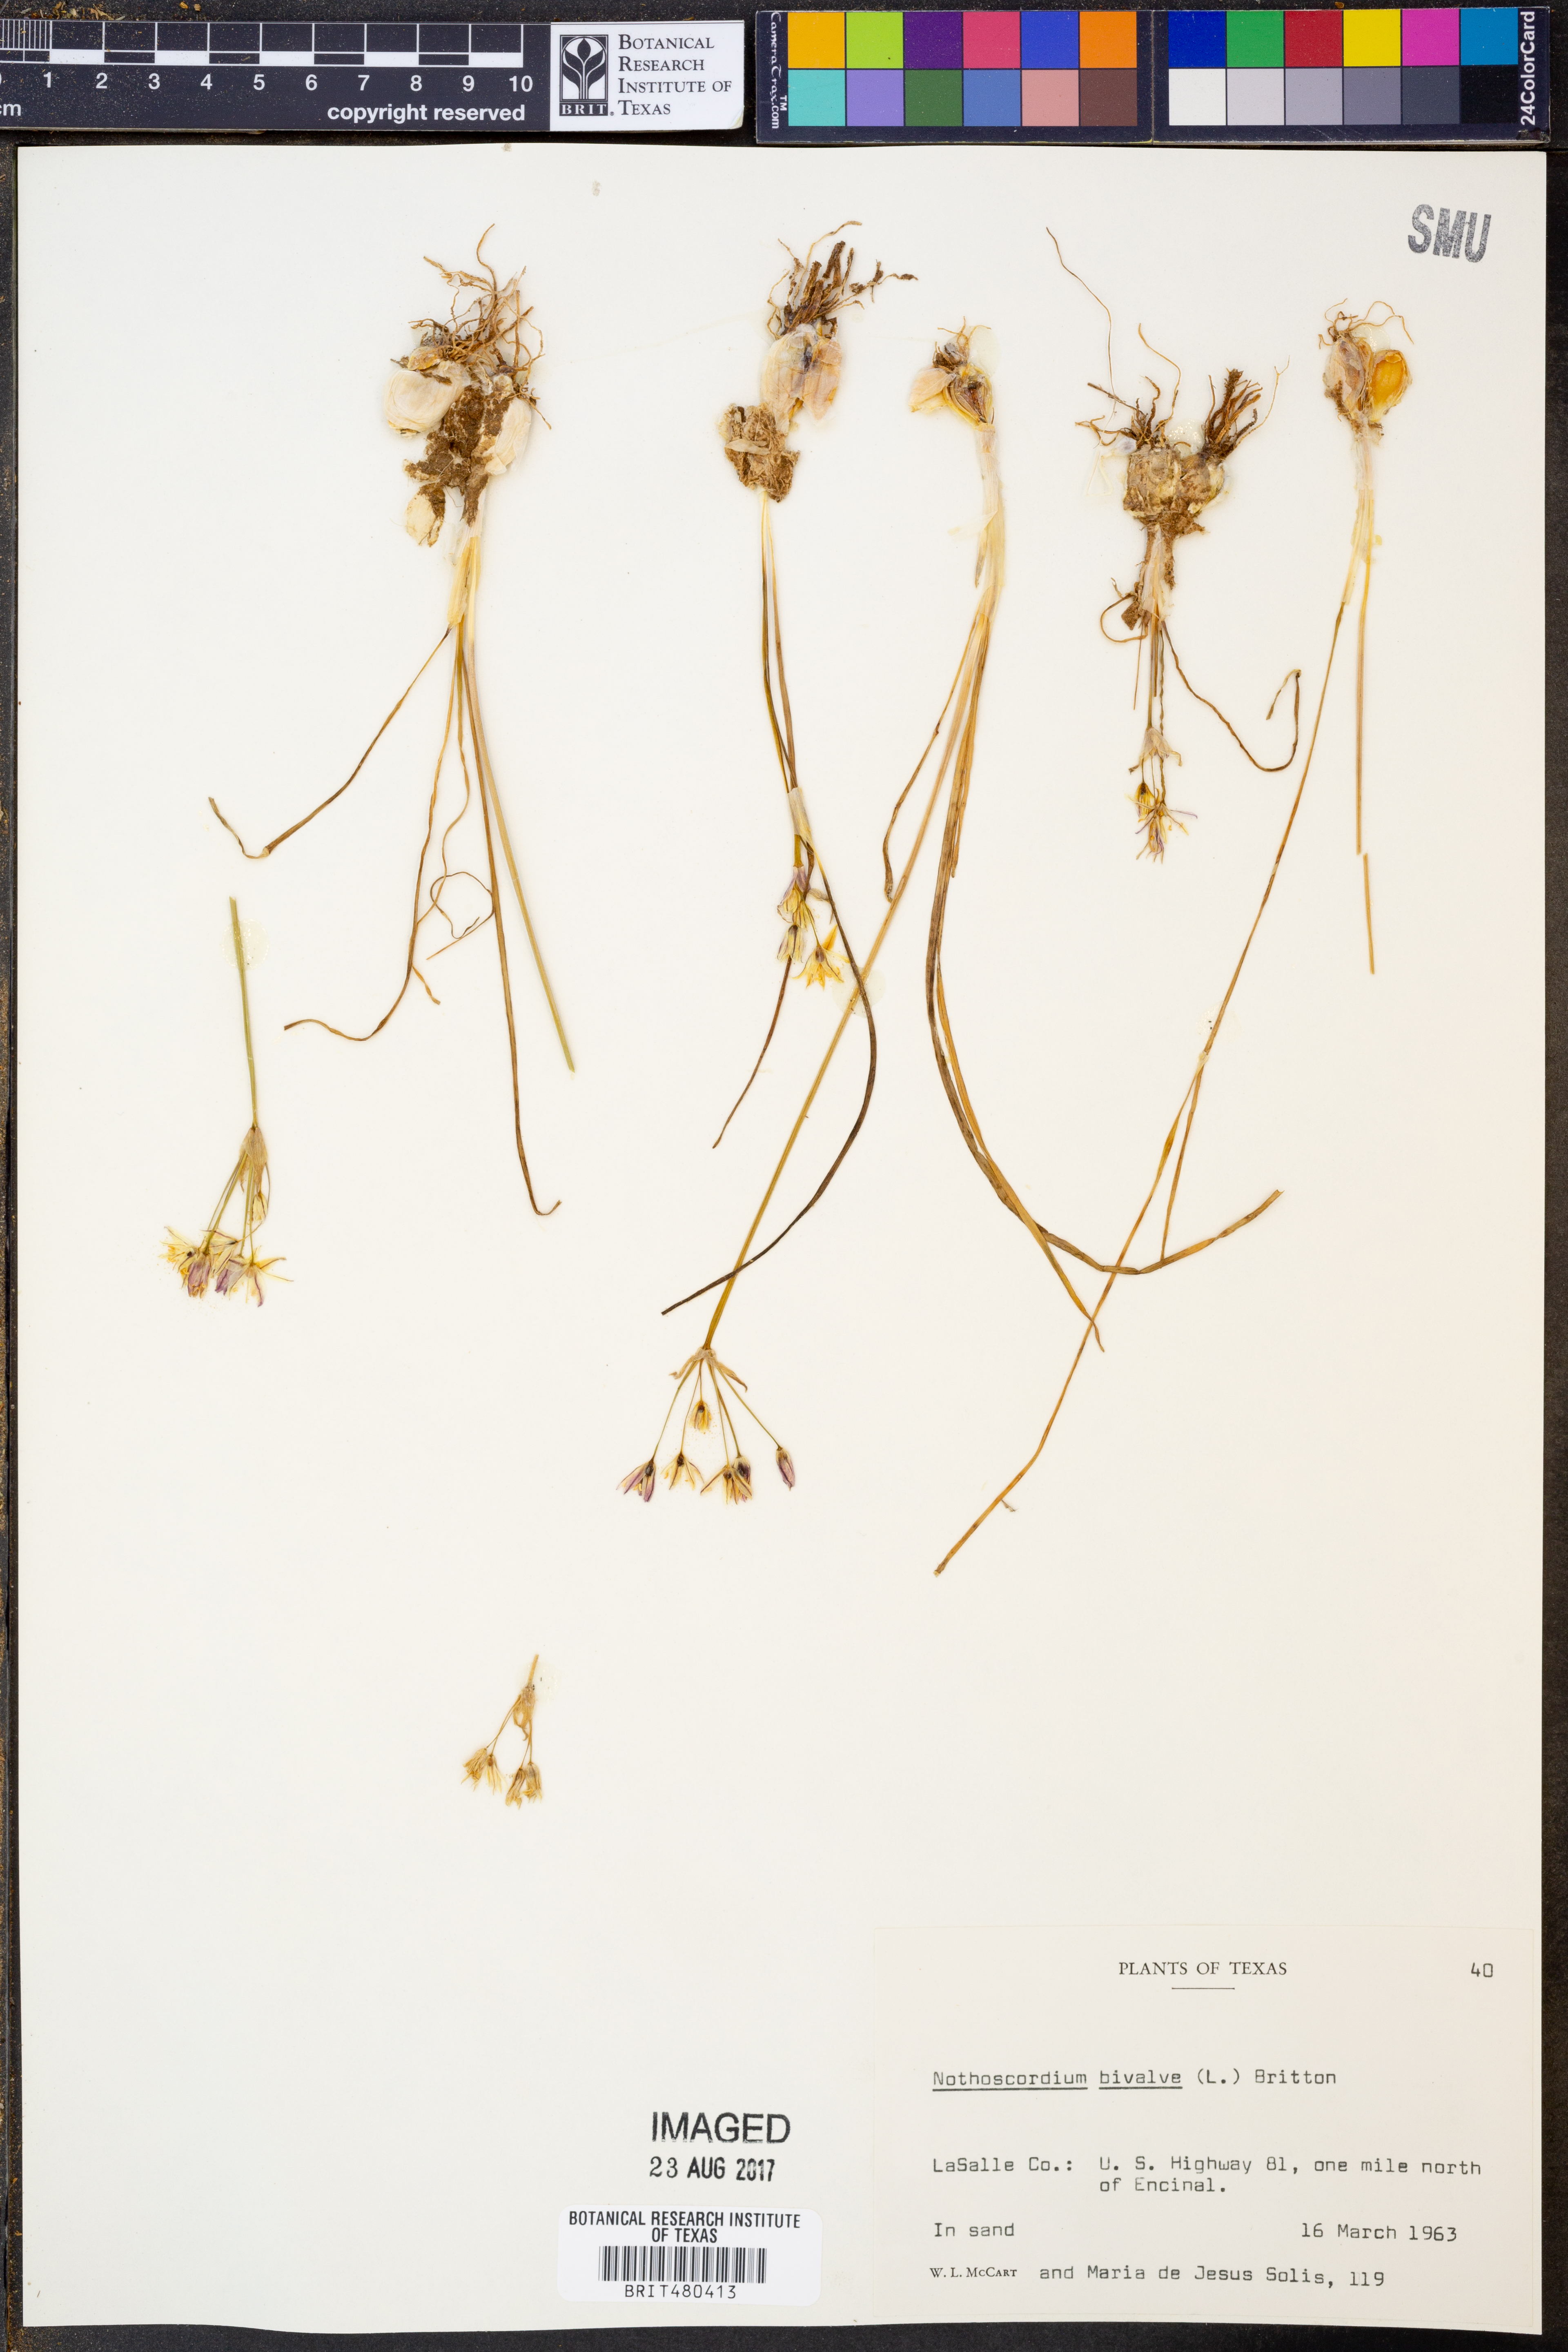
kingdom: Plantae
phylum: Tracheophyta
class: Liliopsida
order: Asparagales
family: Amaryllidaceae
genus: Nothoscordum
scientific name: Nothoscordum bivalve
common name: Crow-poison
